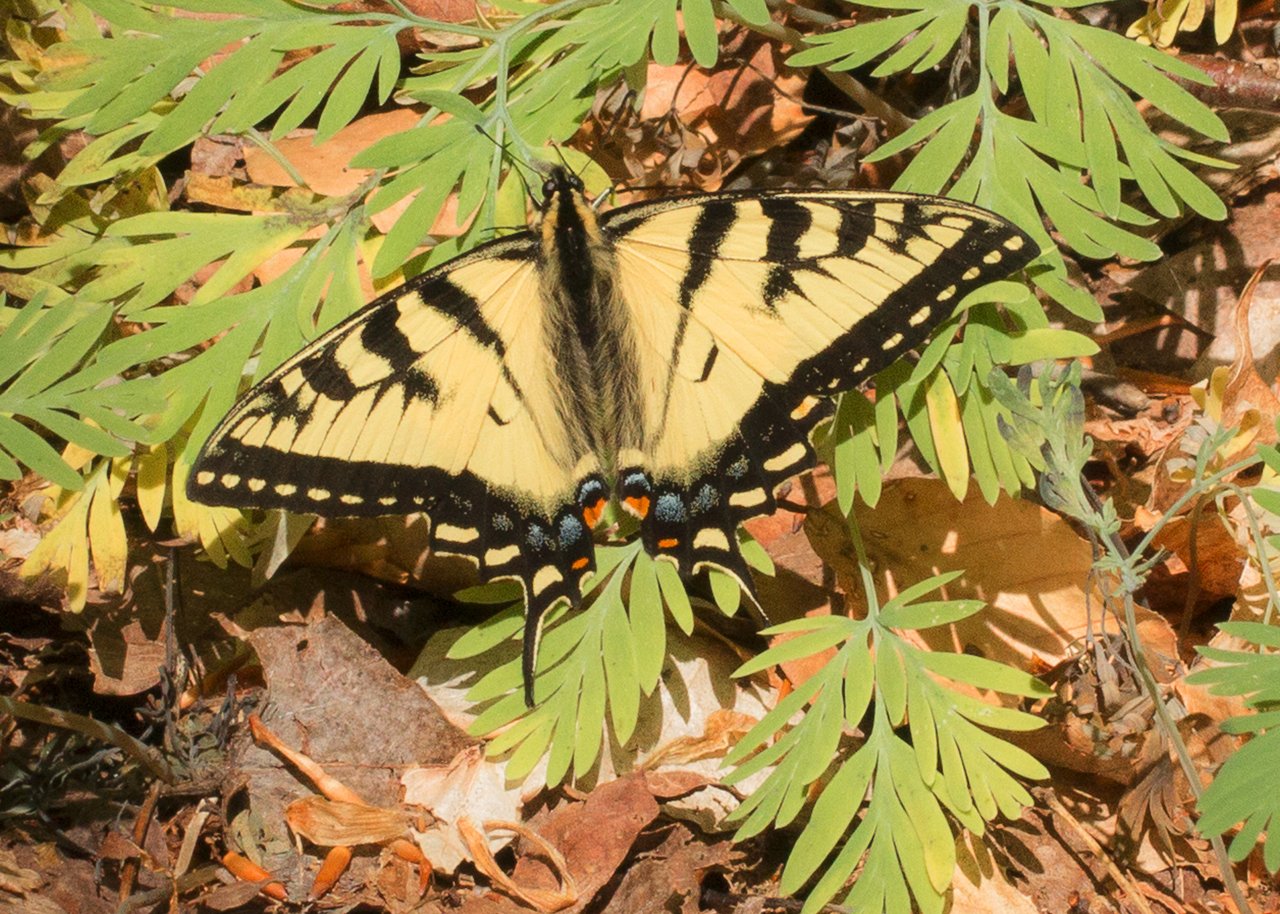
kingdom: Animalia
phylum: Arthropoda
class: Insecta
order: Lepidoptera
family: Papilionidae
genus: Pterourus
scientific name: Pterourus canadensis
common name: Canadian Tiger Swallowtail
